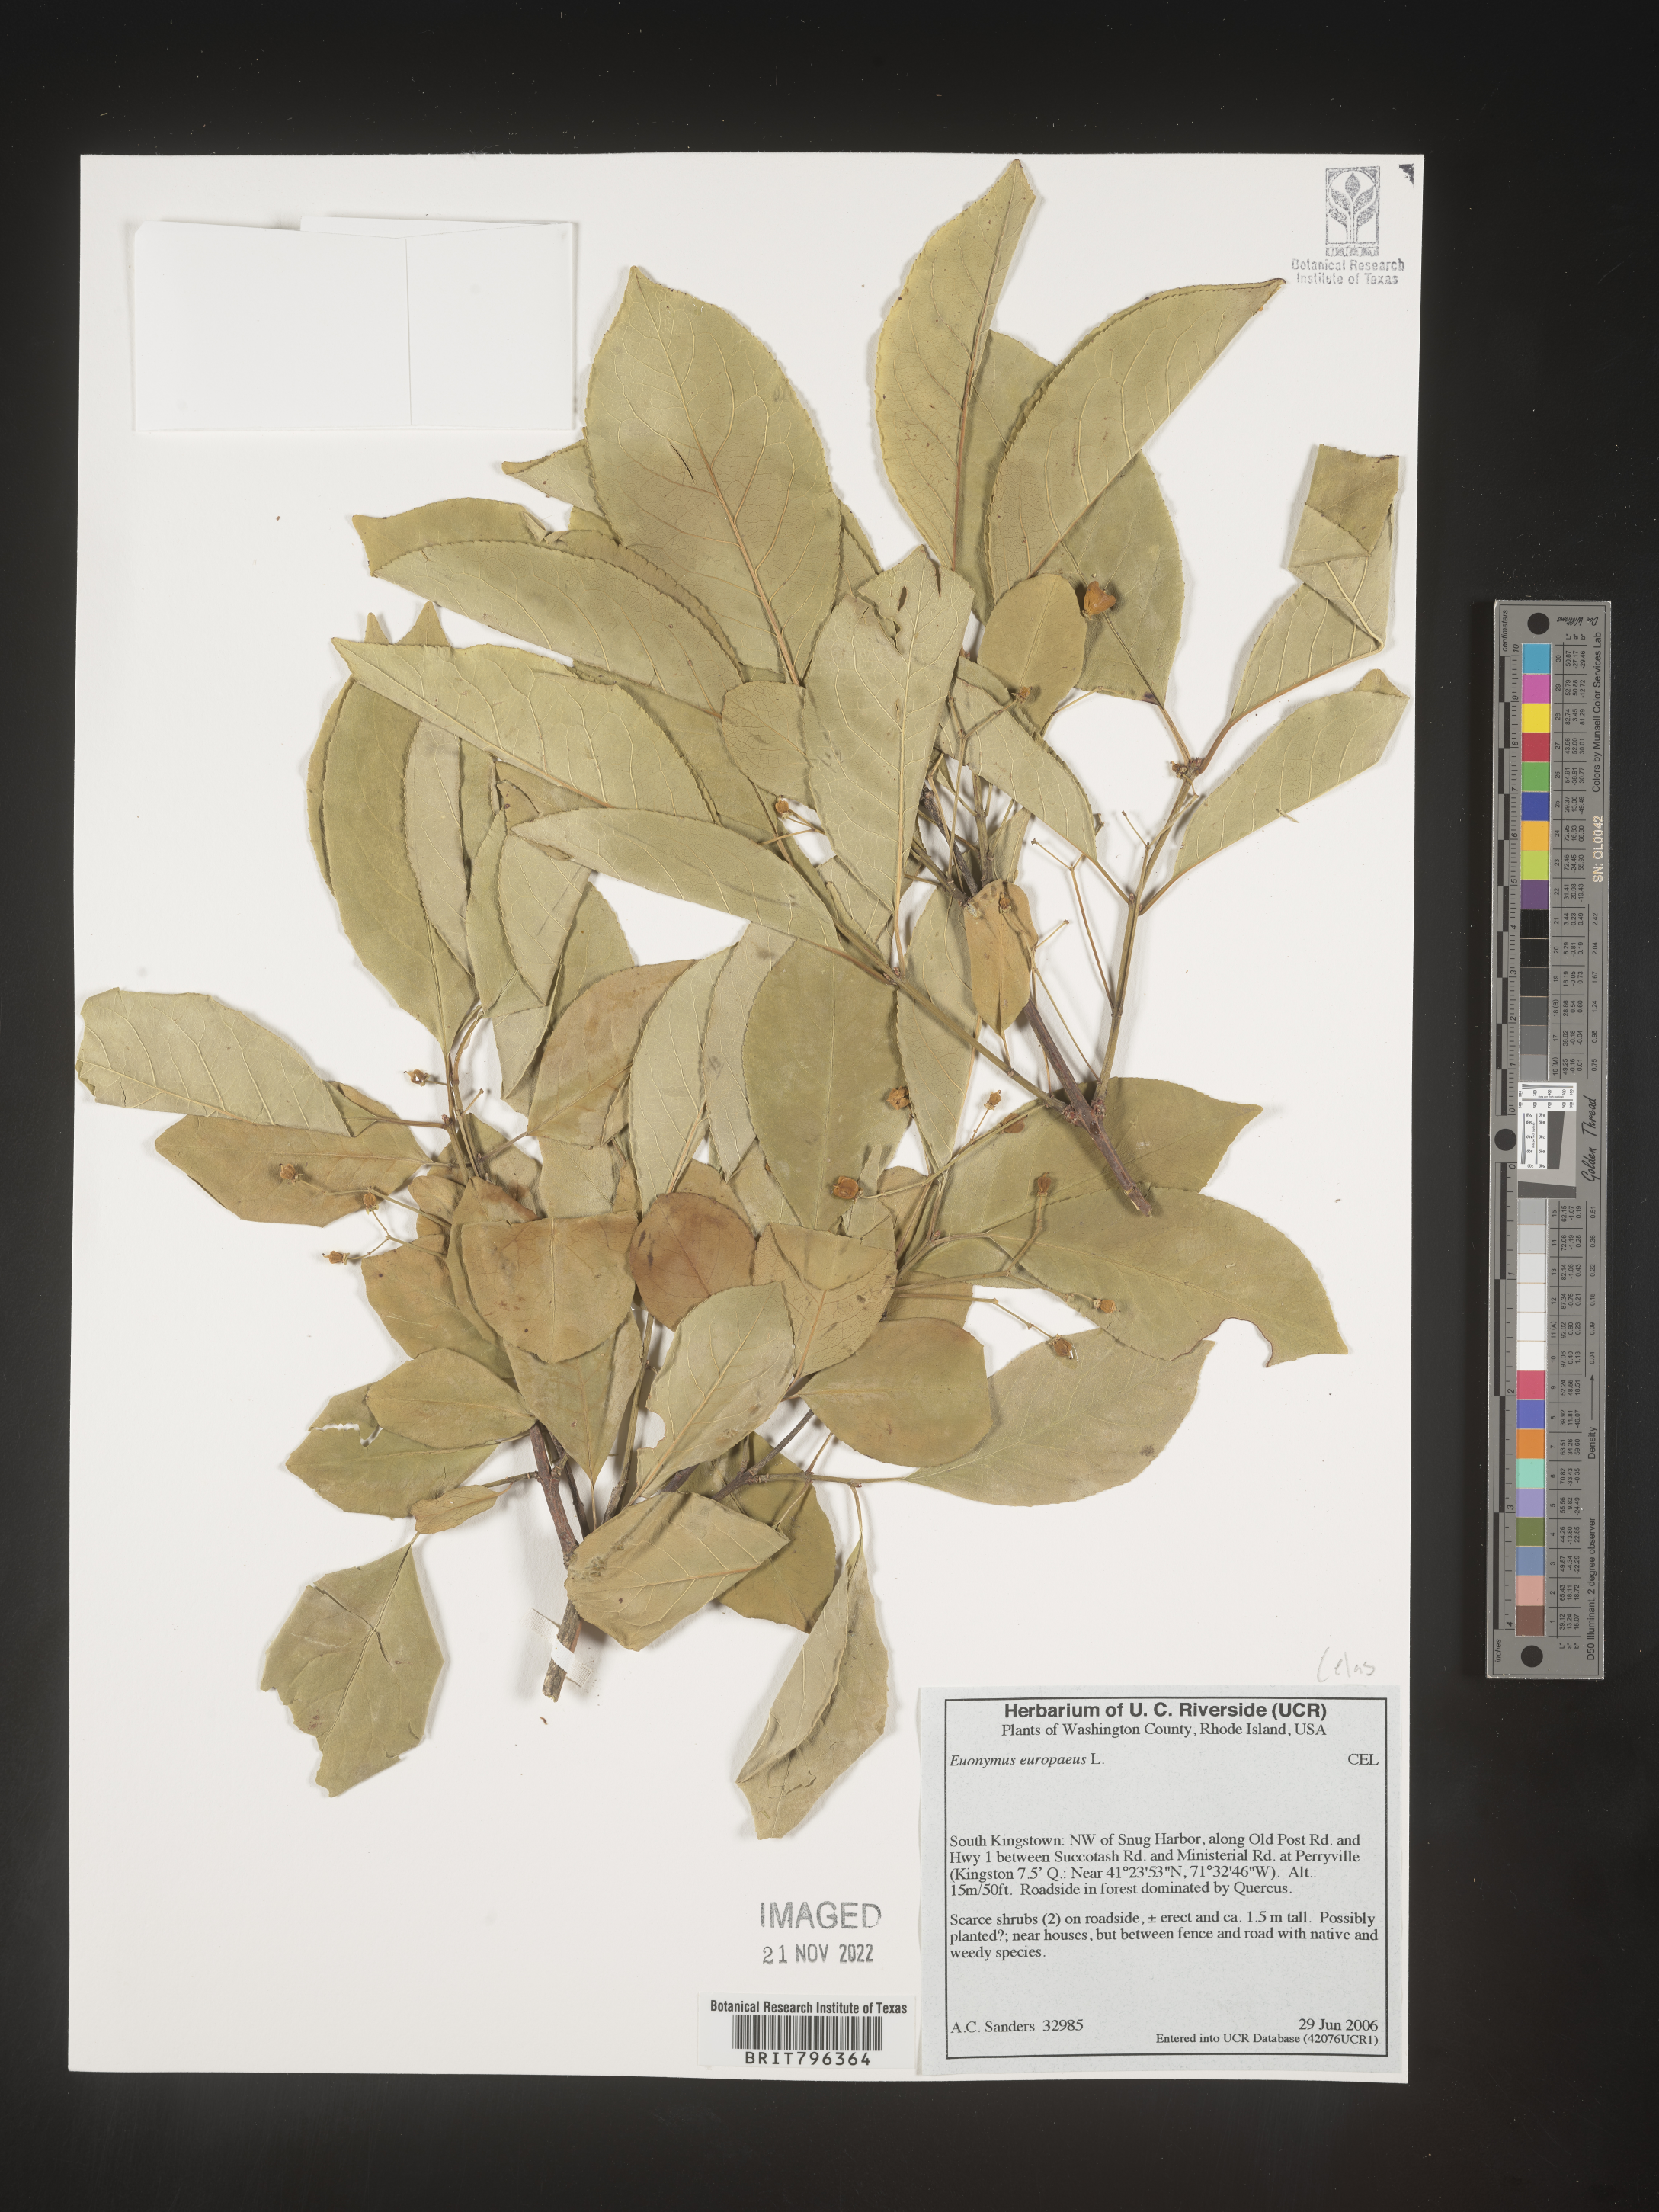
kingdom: Plantae
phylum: Tracheophyta
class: Magnoliopsida
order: Celastrales
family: Celastraceae
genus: Euonymus
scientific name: Euonymus europaeus
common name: Spindle
